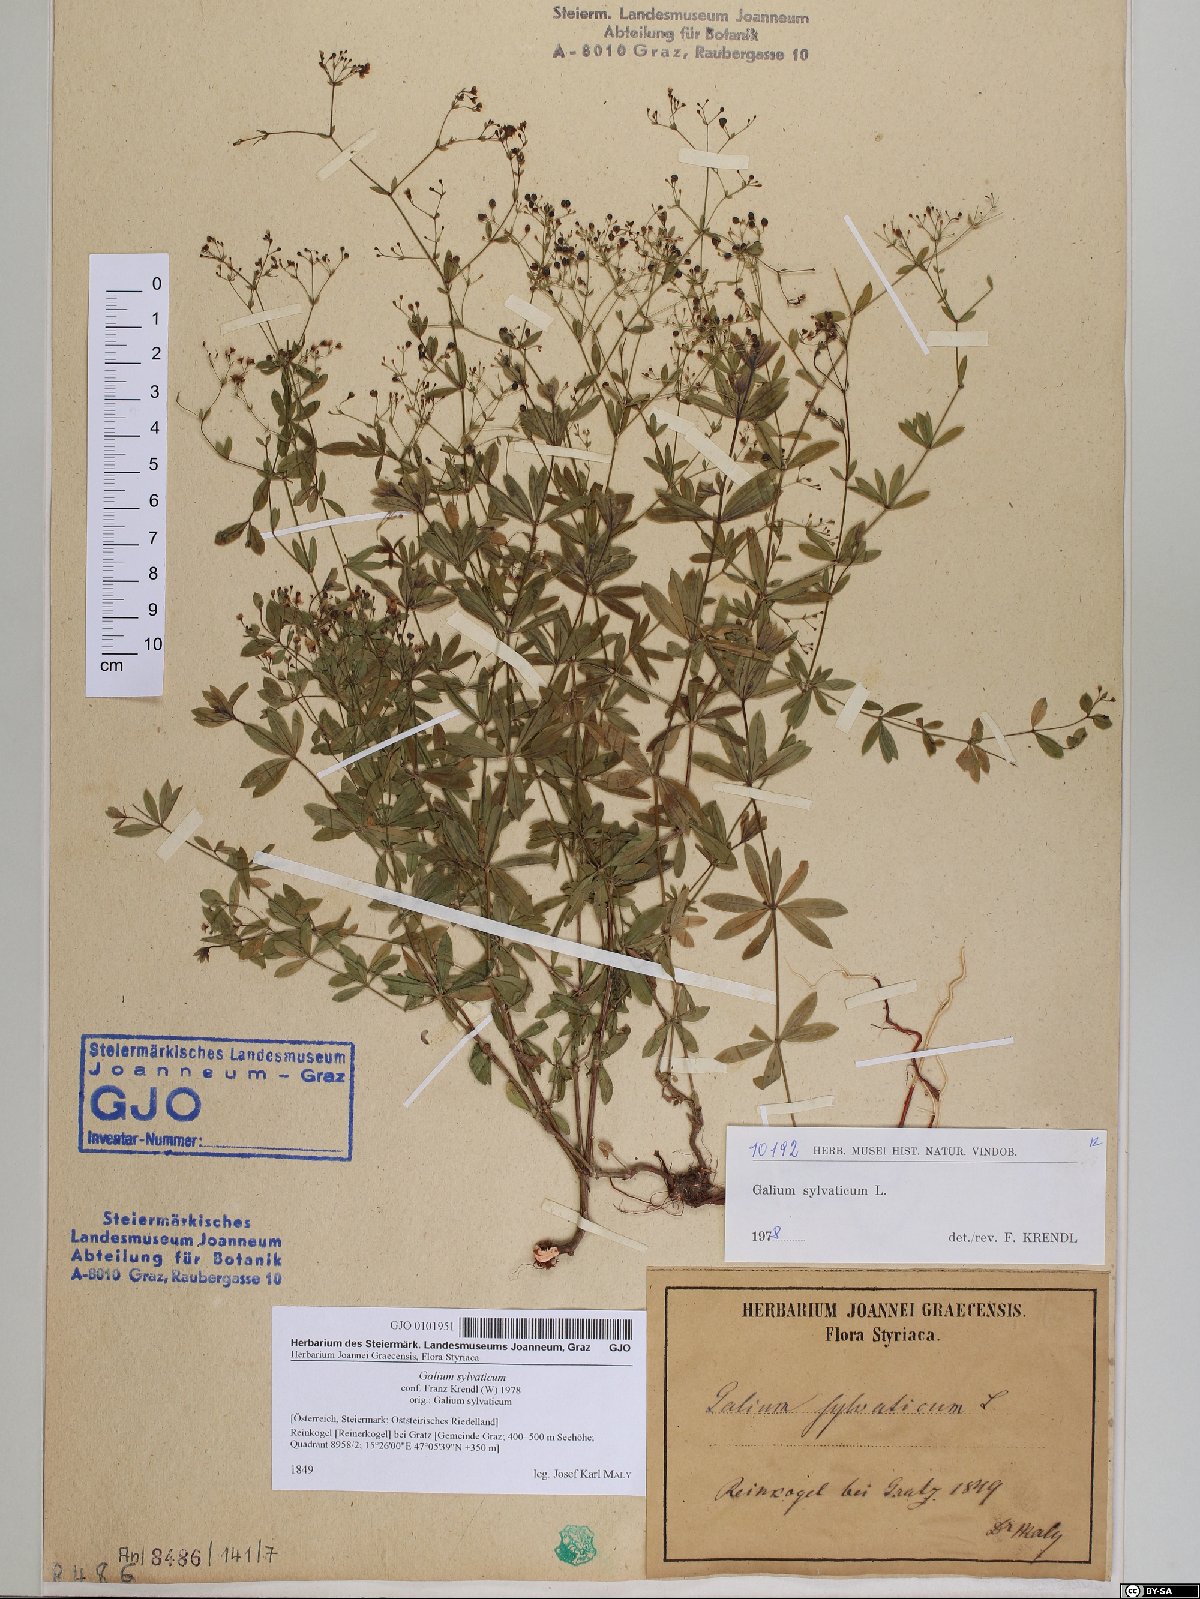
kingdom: Plantae
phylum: Tracheophyta
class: Magnoliopsida
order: Gentianales
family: Rubiaceae
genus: Galium
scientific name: Galium sylvaticum
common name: Wood bedstraw
